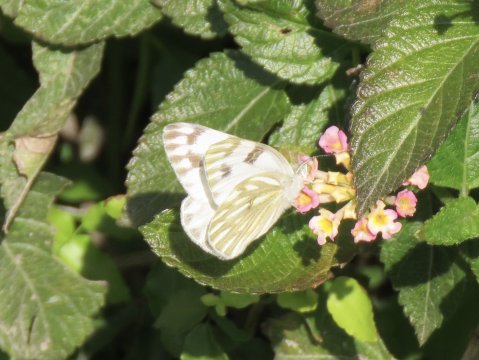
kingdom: Animalia
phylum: Arthropoda
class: Insecta
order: Lepidoptera
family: Pieridae
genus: Pontia
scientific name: Pontia protodice
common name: Checkered White
